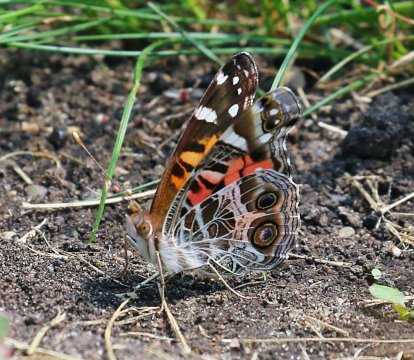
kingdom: Animalia
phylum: Arthropoda
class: Insecta
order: Lepidoptera
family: Nymphalidae
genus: Vanessa
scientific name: Vanessa virginiensis
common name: American Lady
